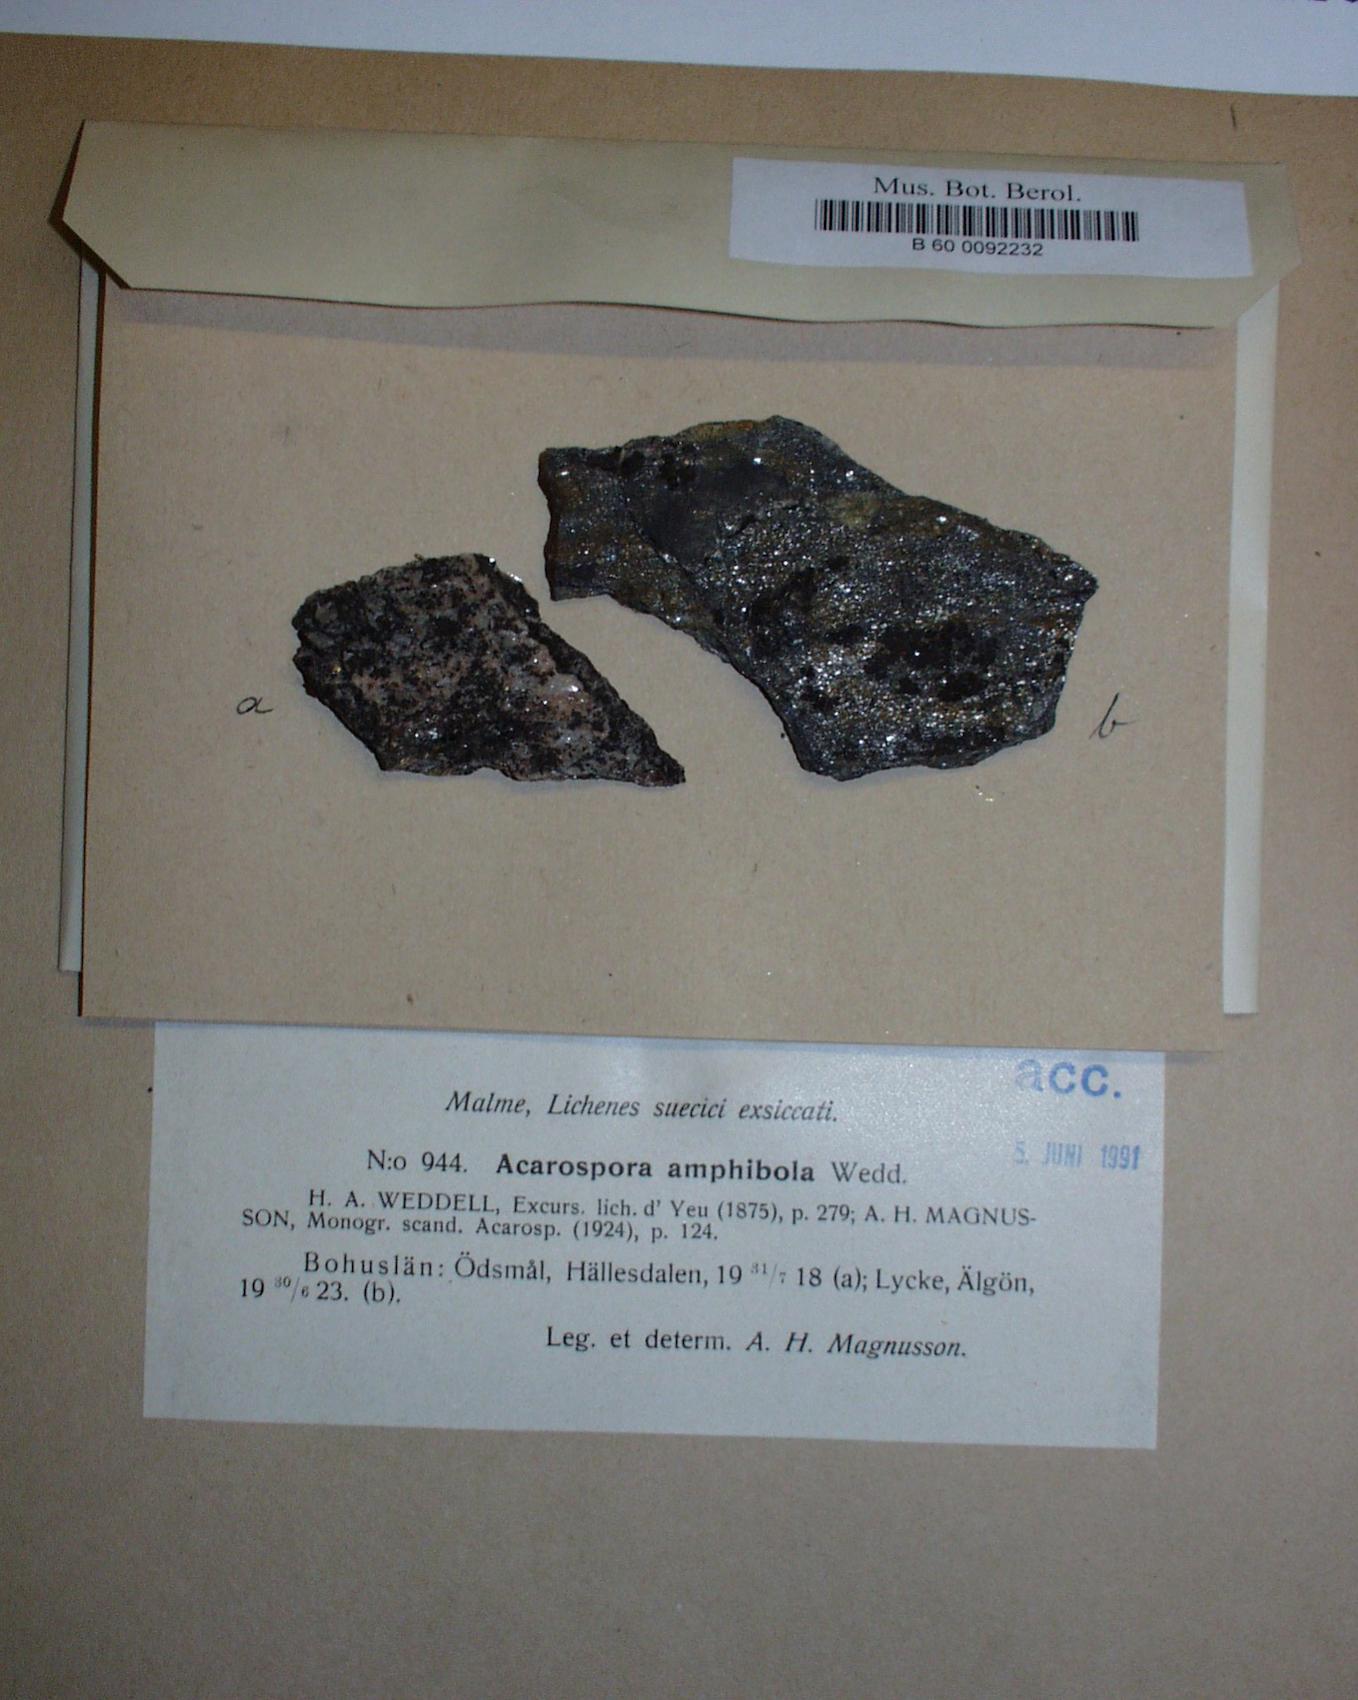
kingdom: Fungi
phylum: Ascomycota
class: Lecanoromycetes
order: Acarosporales
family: Acarosporaceae
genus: Myriospora
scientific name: Myriospora smaragdula
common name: Little emerald lichen
